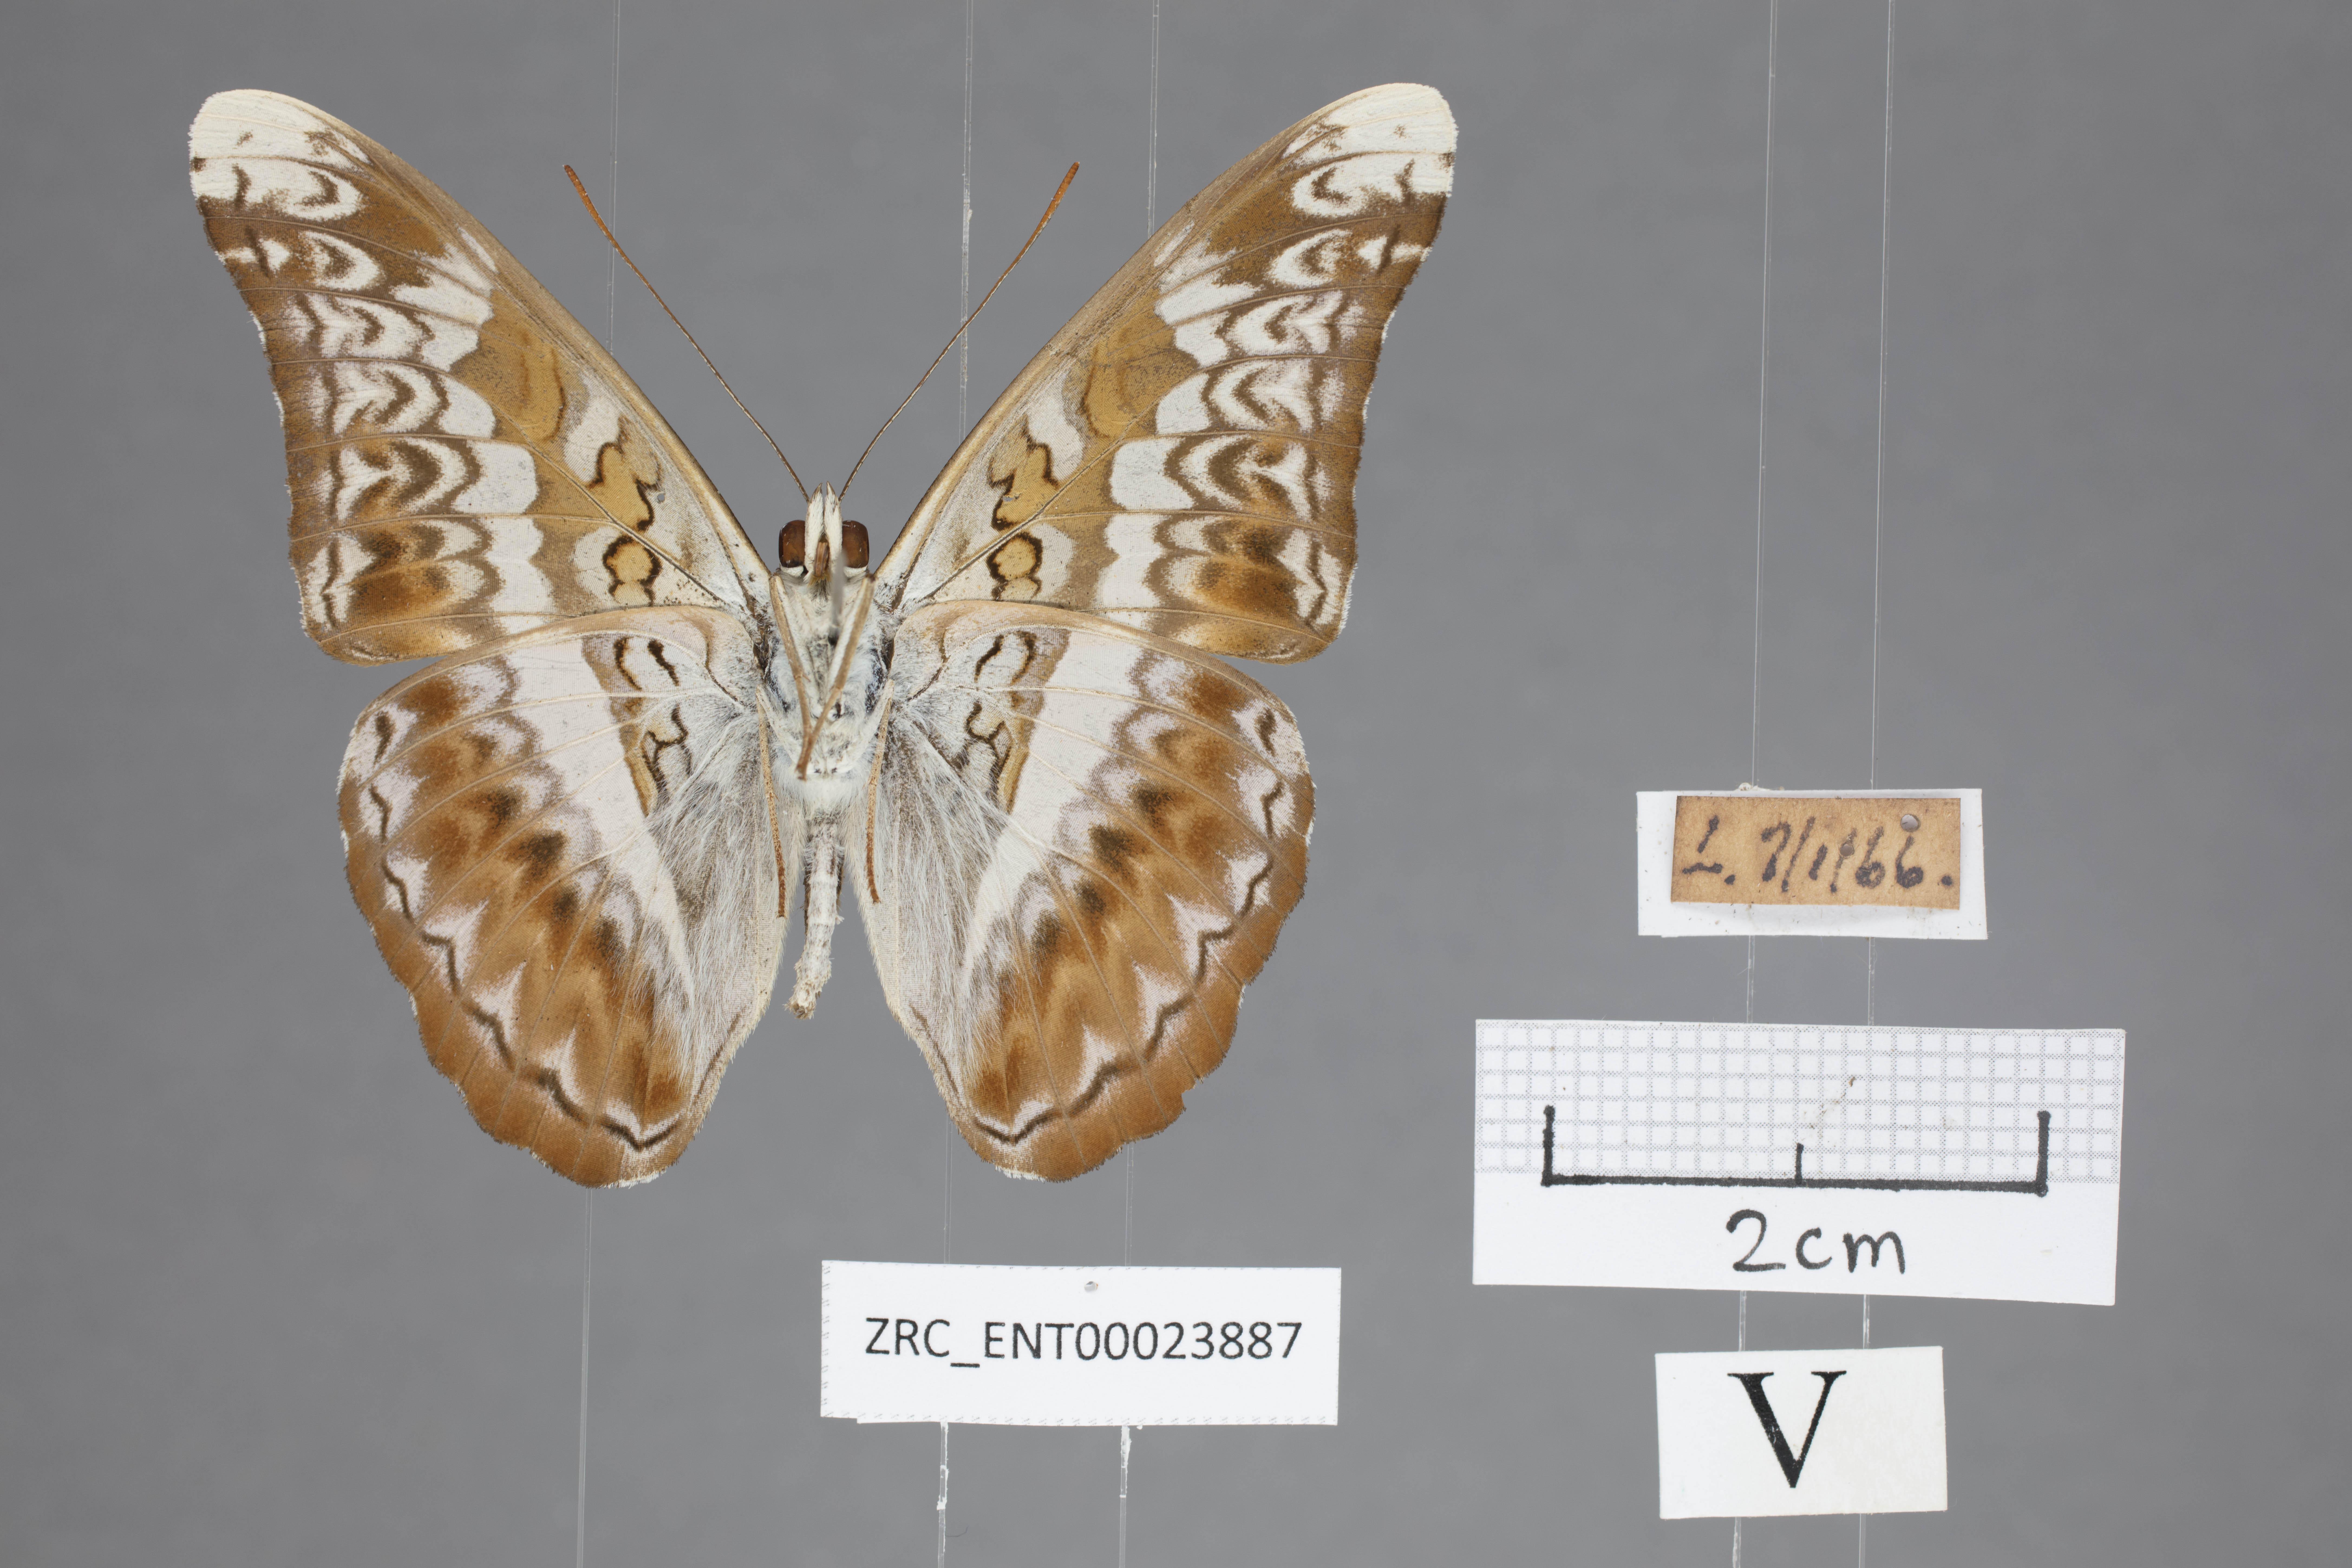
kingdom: Animalia
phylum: Arthropoda
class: Insecta
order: Lepidoptera
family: Nymphalidae
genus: Lebadea
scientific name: Lebadea martha
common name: Knight
